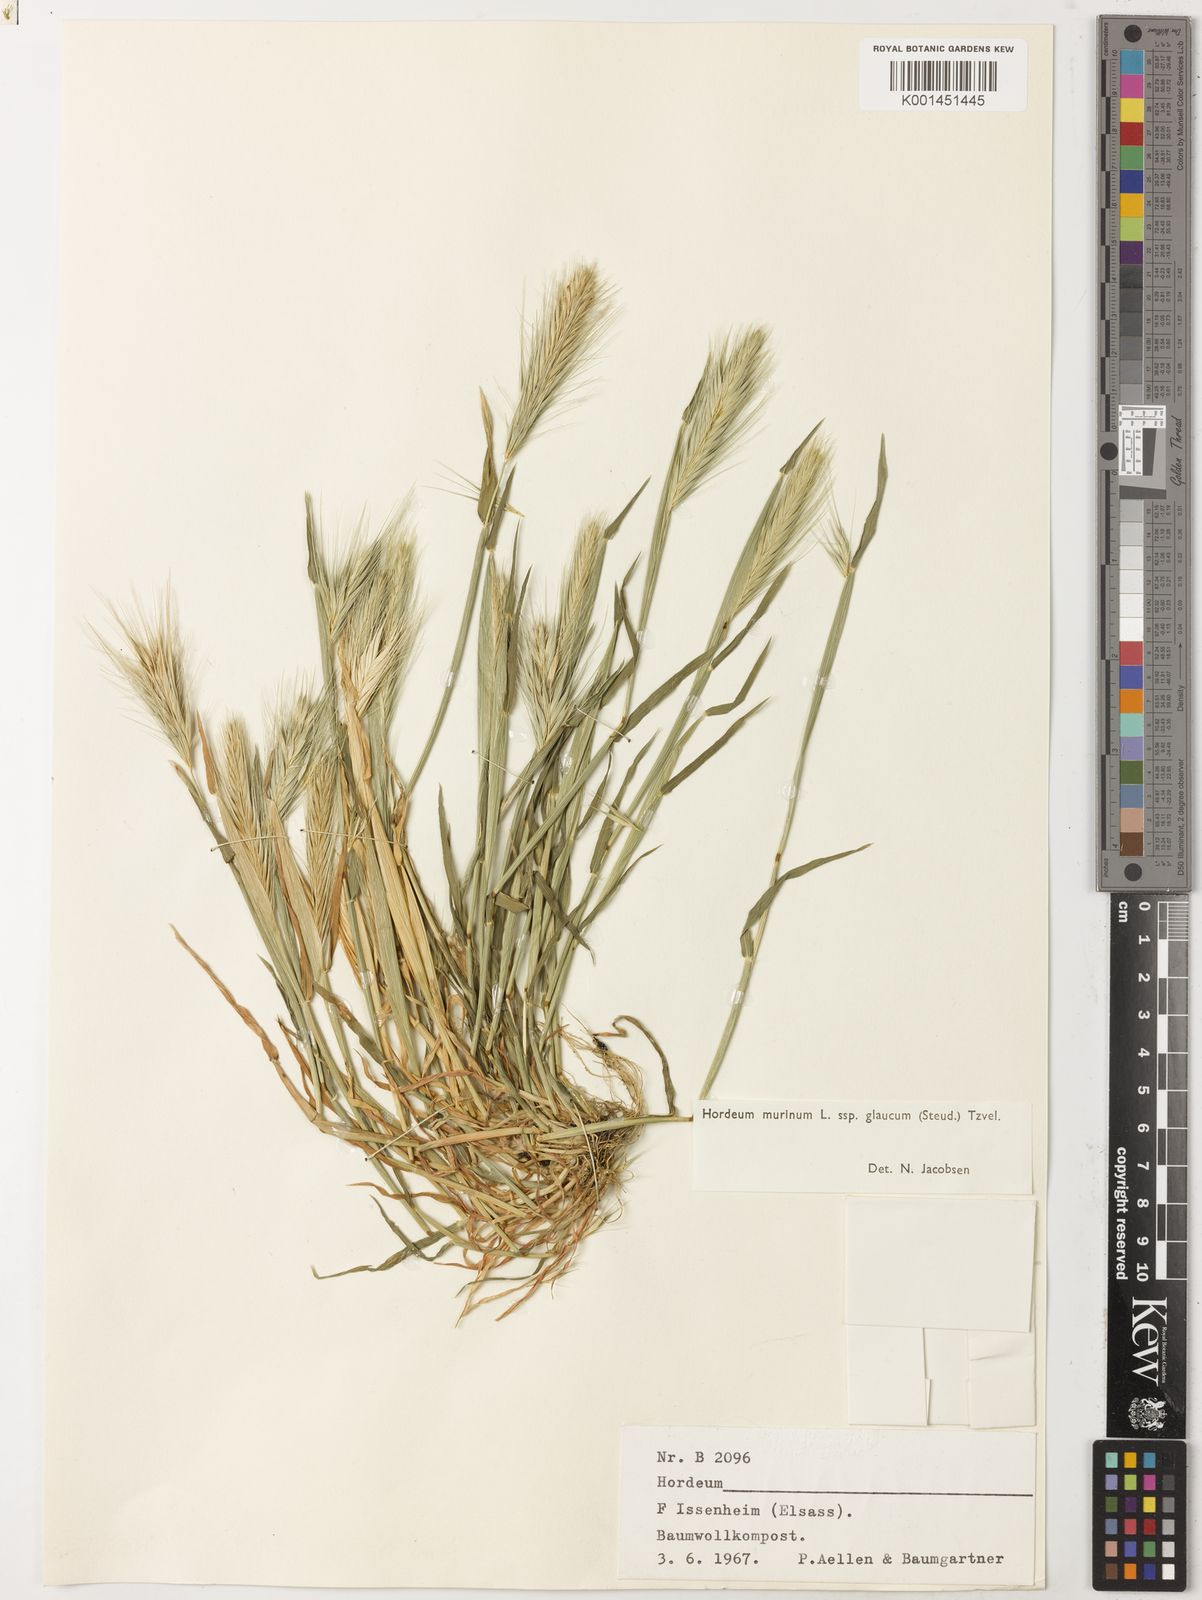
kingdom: Plantae
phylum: Tracheophyta
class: Liliopsida
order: Poales
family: Poaceae
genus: Hordeum
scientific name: Hordeum murinum
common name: Wall barley
